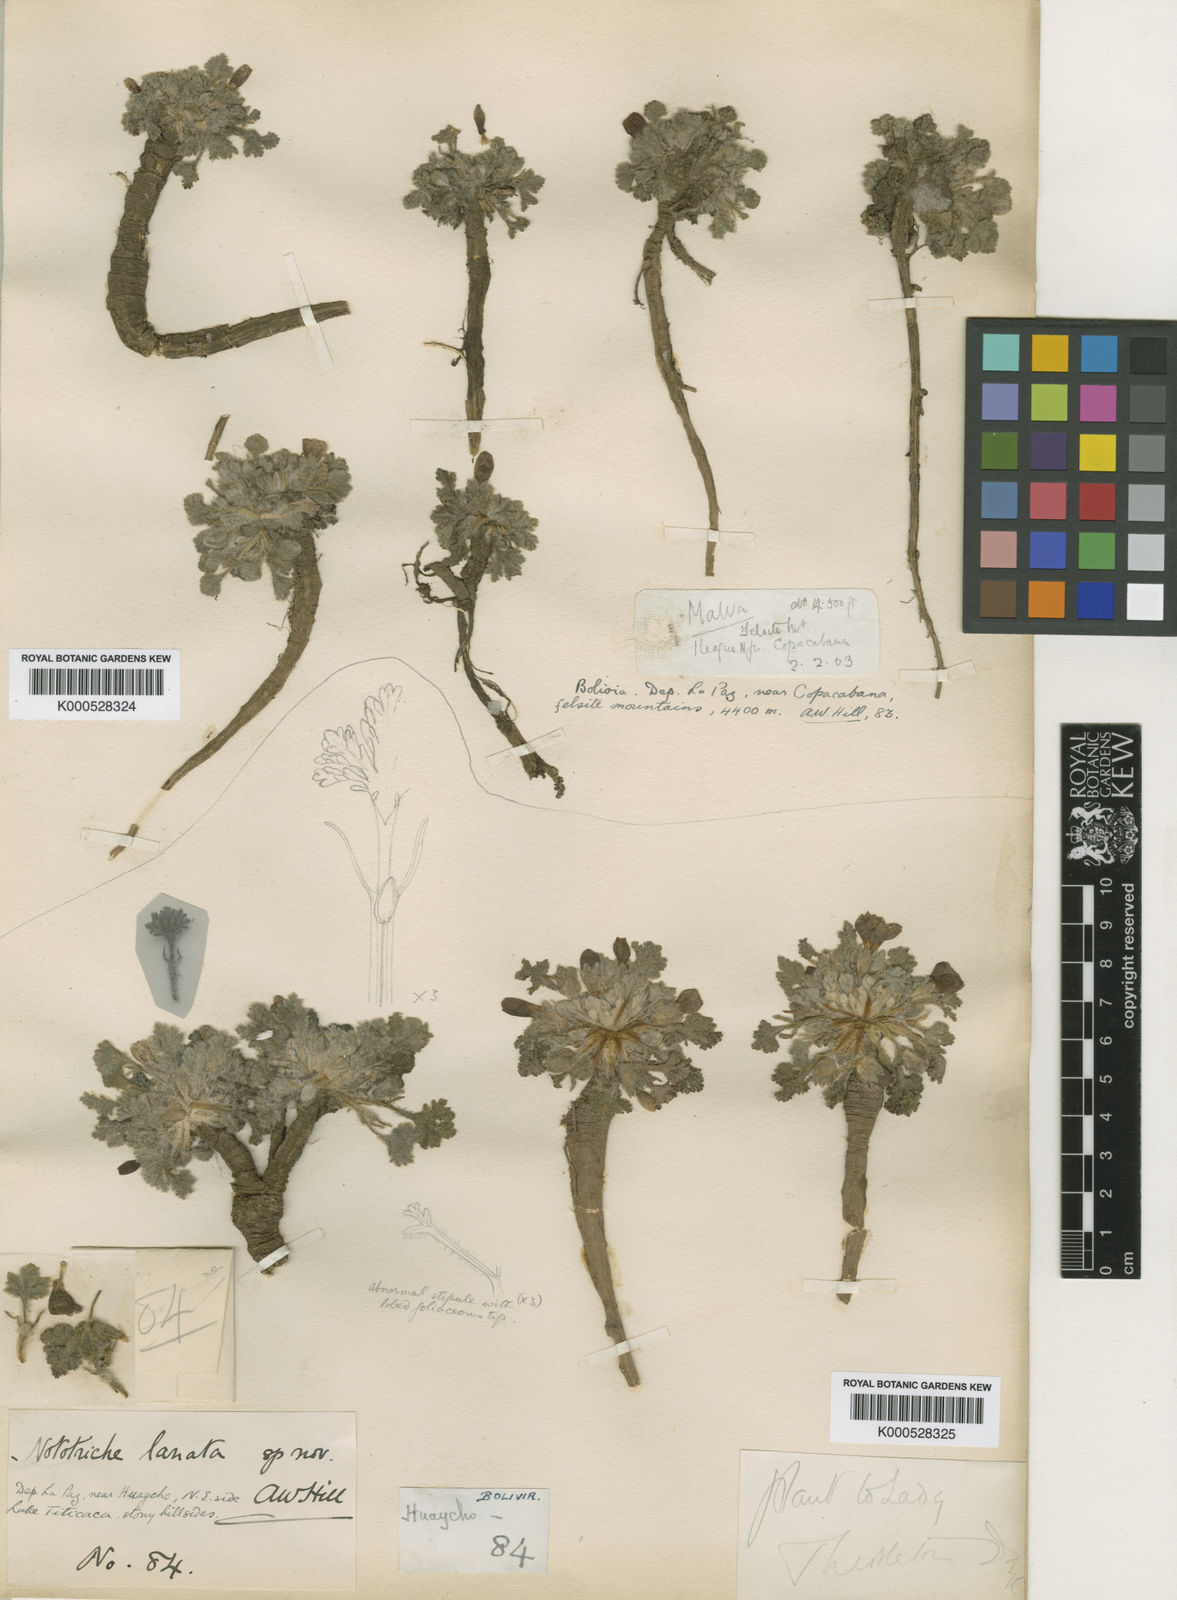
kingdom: Plantae
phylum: Tracheophyta
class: Magnoliopsida
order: Malvales
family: Malvaceae
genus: Nototriche
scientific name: Nototriche lanata
